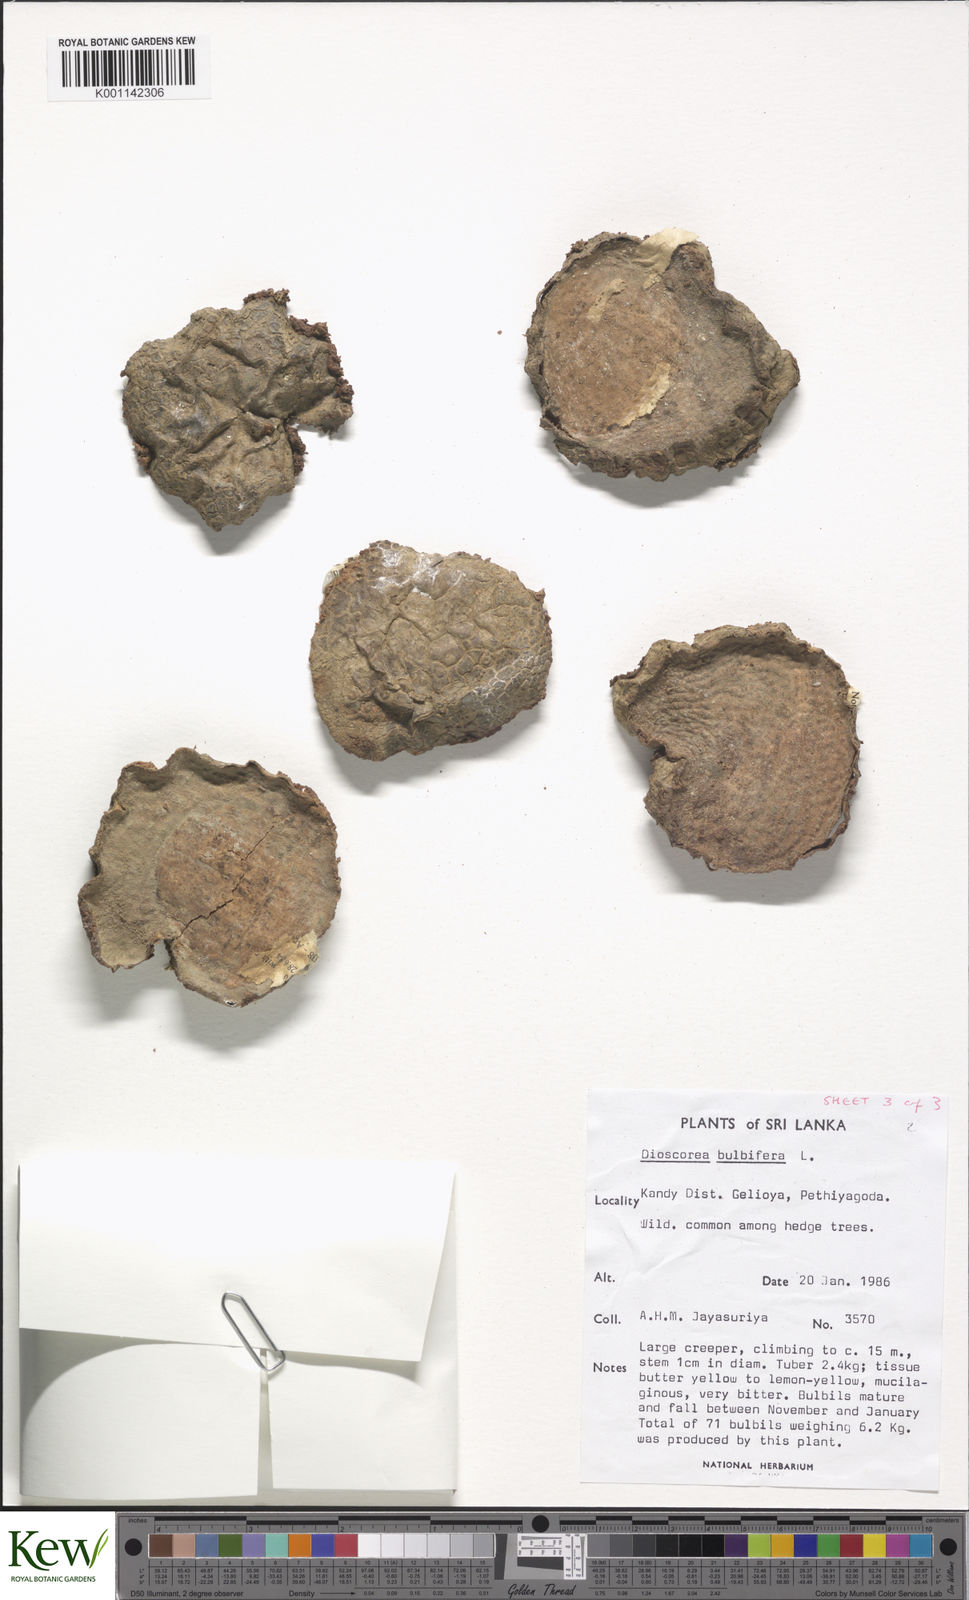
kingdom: Plantae
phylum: Tracheophyta
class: Liliopsida
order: Dioscoreales
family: Dioscoreaceae
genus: Dioscorea
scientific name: Dioscorea bulbifera
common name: Air yam
